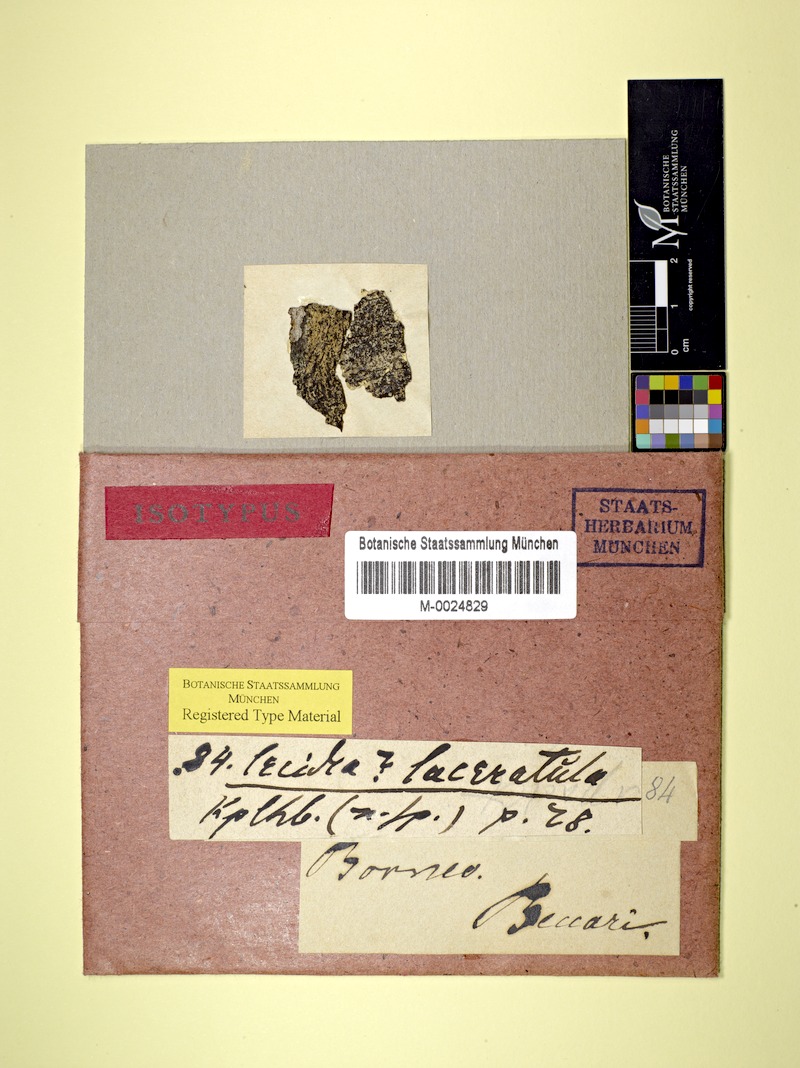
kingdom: Fungi
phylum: Ascomycota
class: Lecanoromycetes
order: Lecideales
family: Lecideaceae
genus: Lecidea
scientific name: Lecidea
